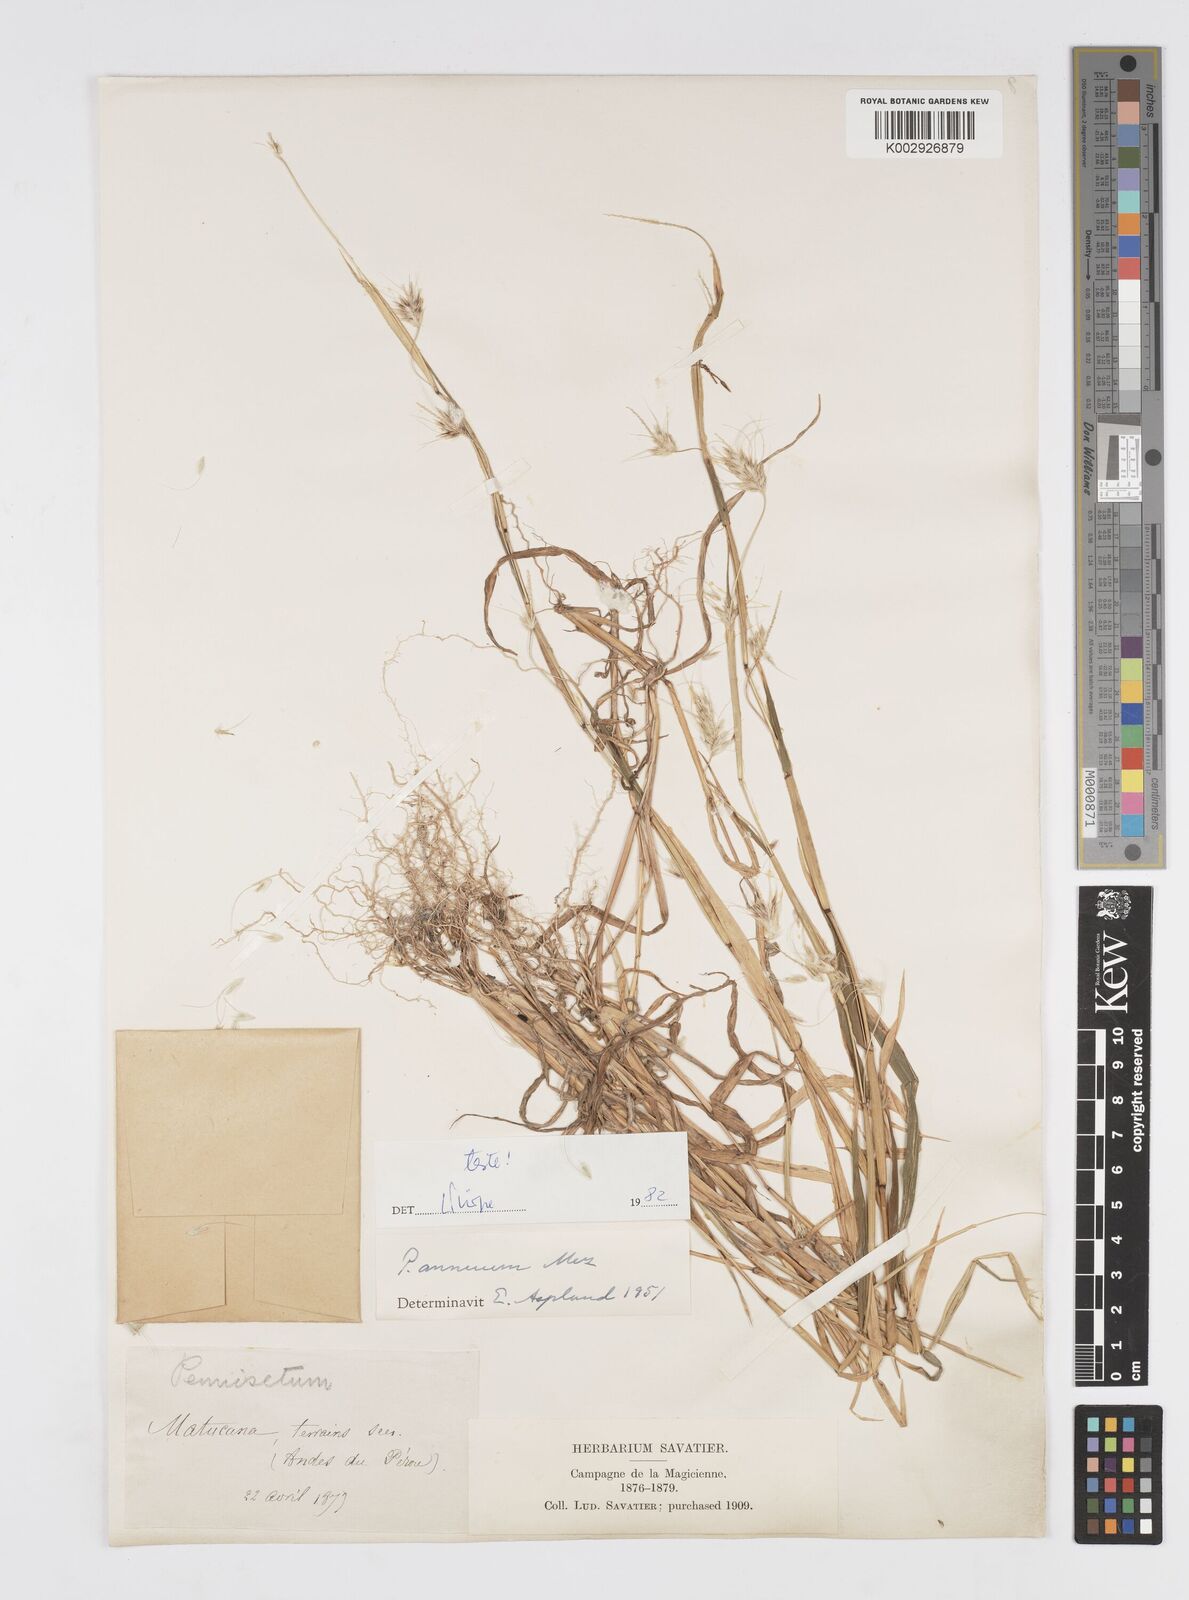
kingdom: Plantae
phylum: Tracheophyta
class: Liliopsida
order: Poales
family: Poaceae
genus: Cenchrus
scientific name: Cenchrus annuus
